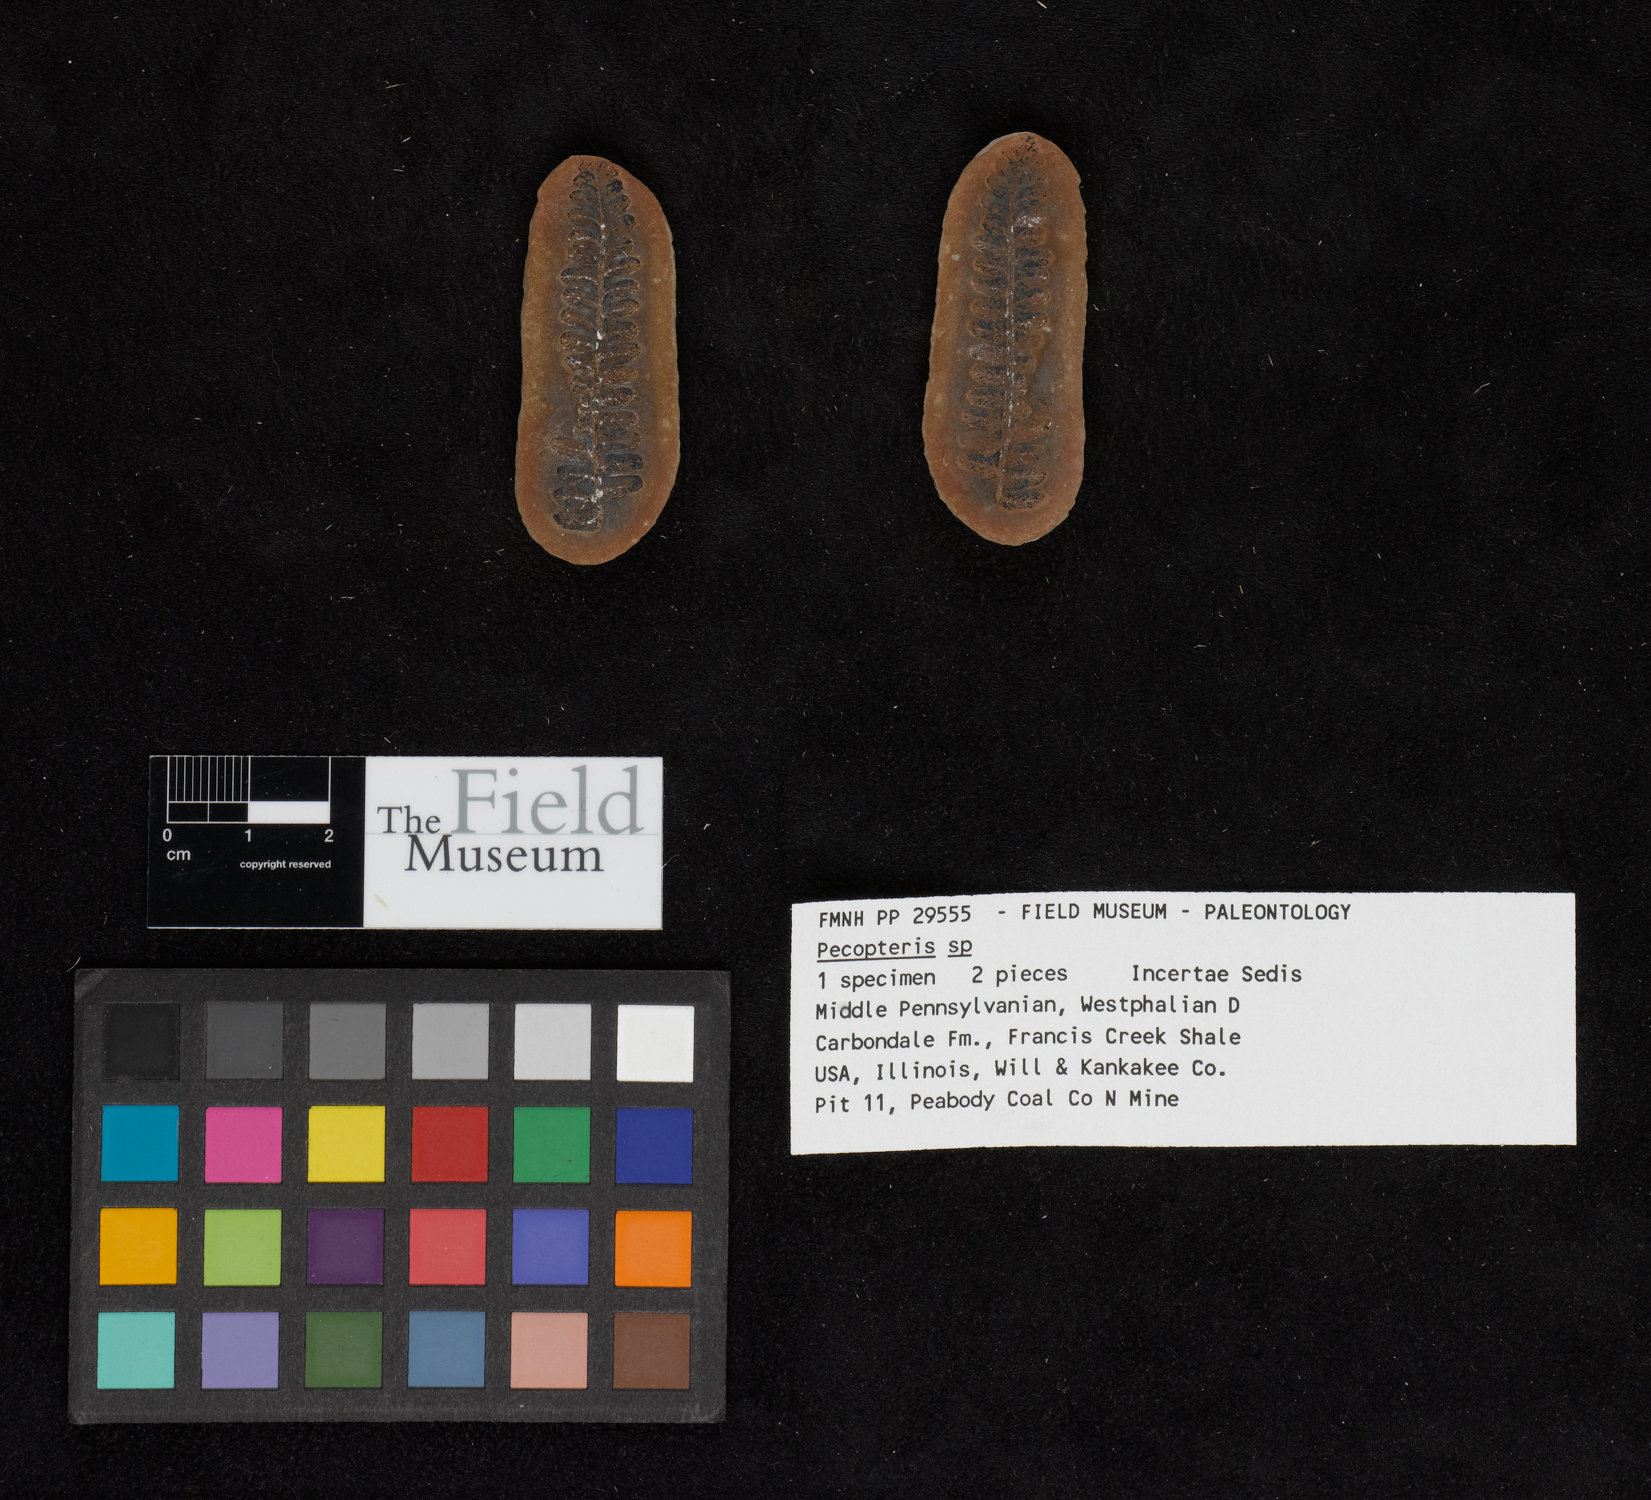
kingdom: Plantae
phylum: Tracheophyta
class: Polypodiopsida
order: Marattiales
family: Asterothecaceae
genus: Pecopteris
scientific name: Pecopteris
